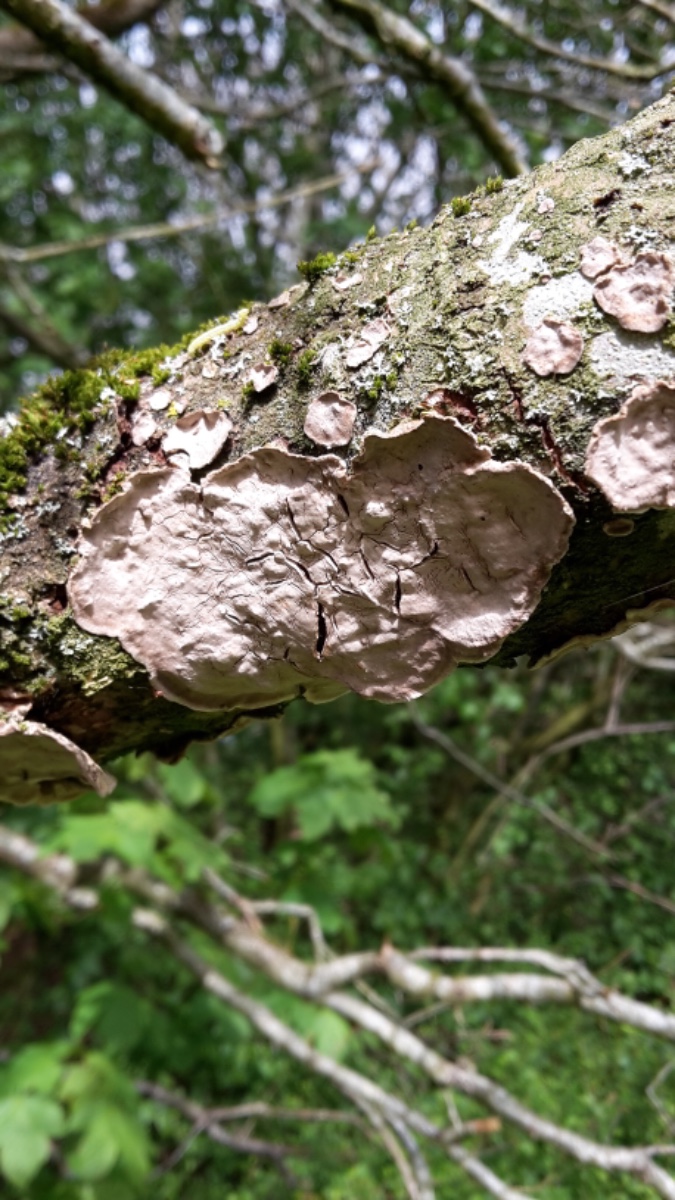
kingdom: Fungi
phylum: Basidiomycota
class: Agaricomycetes
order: Russulales
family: Stereaceae
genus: Stereum
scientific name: Stereum
